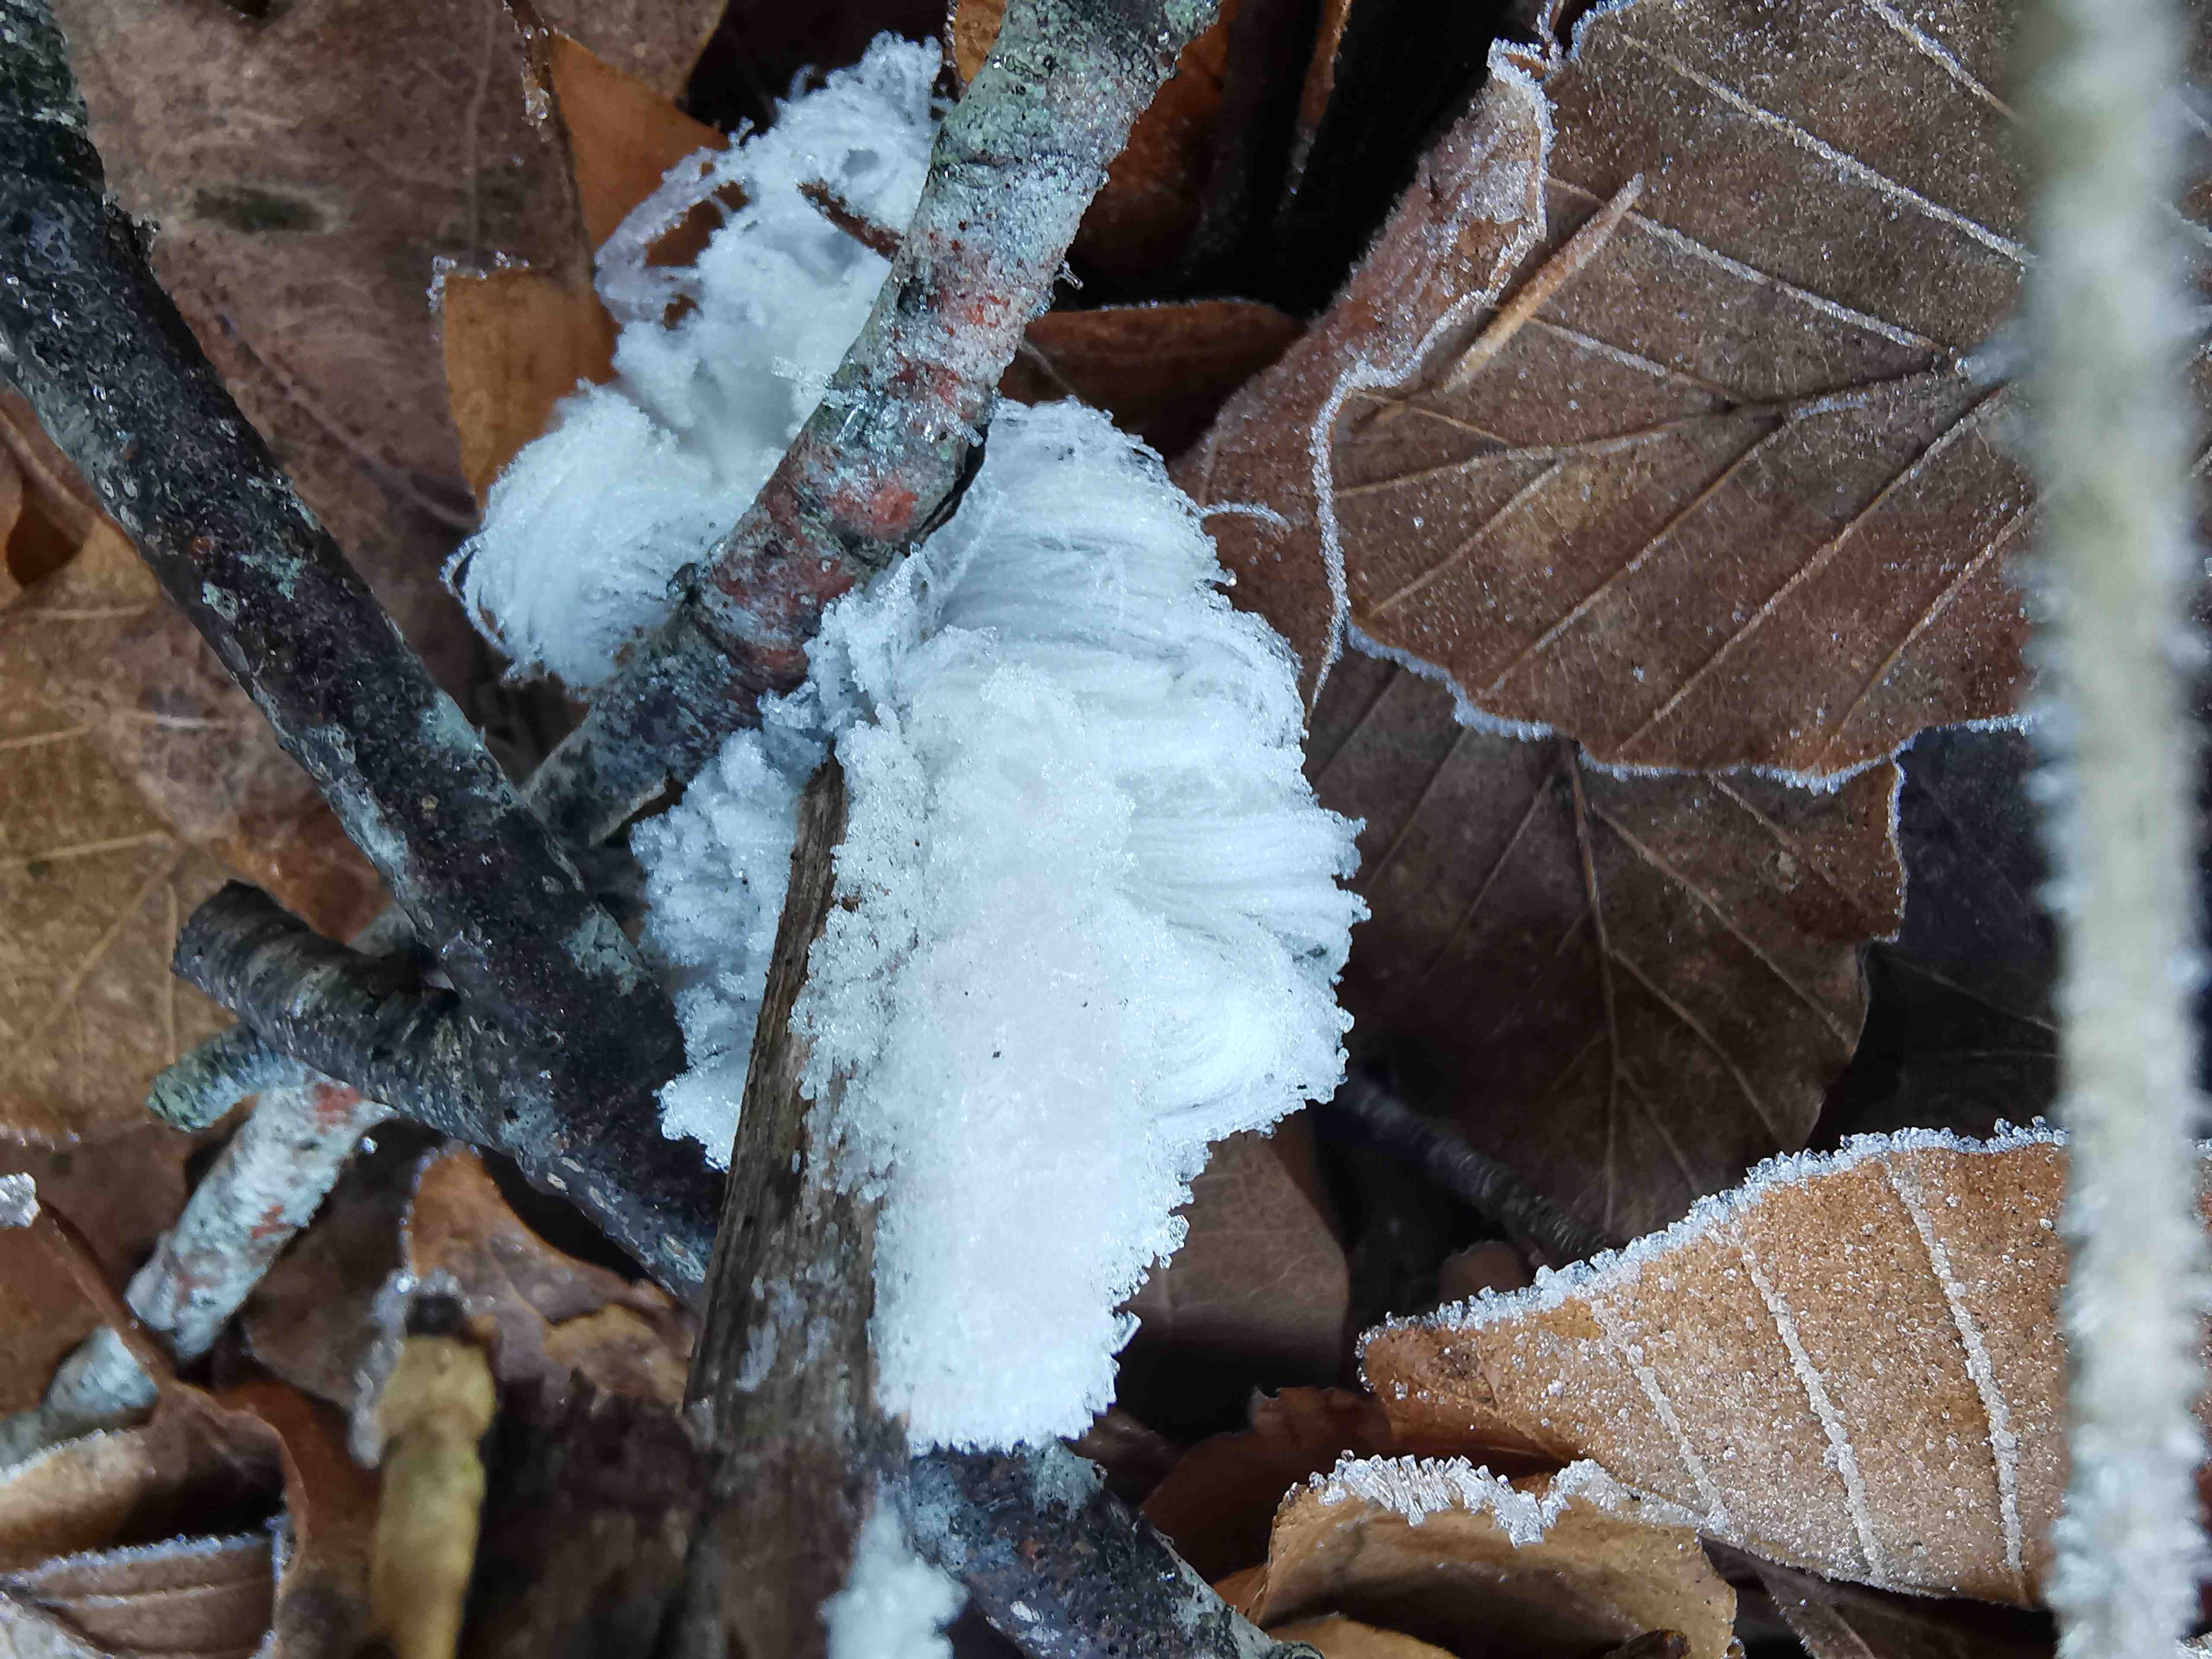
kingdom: Fungi
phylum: Basidiomycota
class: Tremellomycetes
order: Tremellales
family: Exidiaceae
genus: Exidiopsis
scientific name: Exidiopsis effusa
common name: smuk bævrehinde
